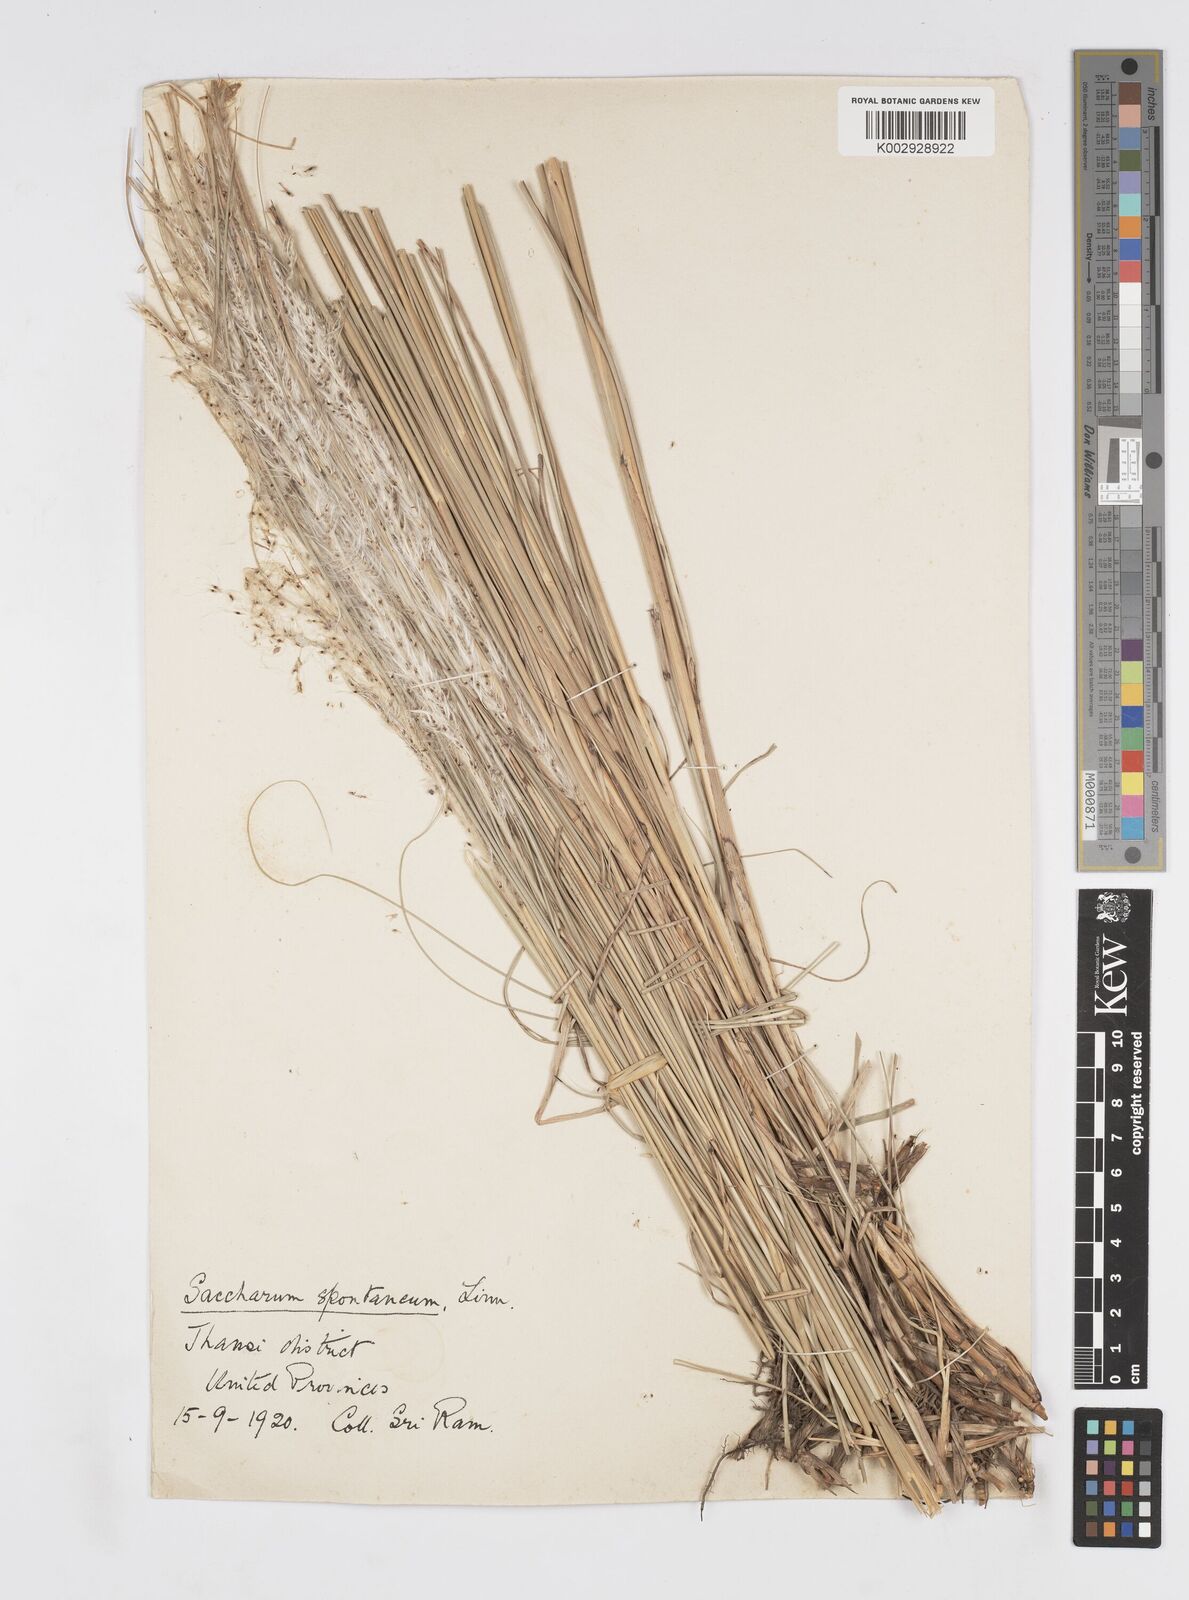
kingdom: Plantae
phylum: Tracheophyta
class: Liliopsida
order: Poales
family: Poaceae
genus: Saccharum
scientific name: Saccharum spontaneum
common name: Wild sugarcane
